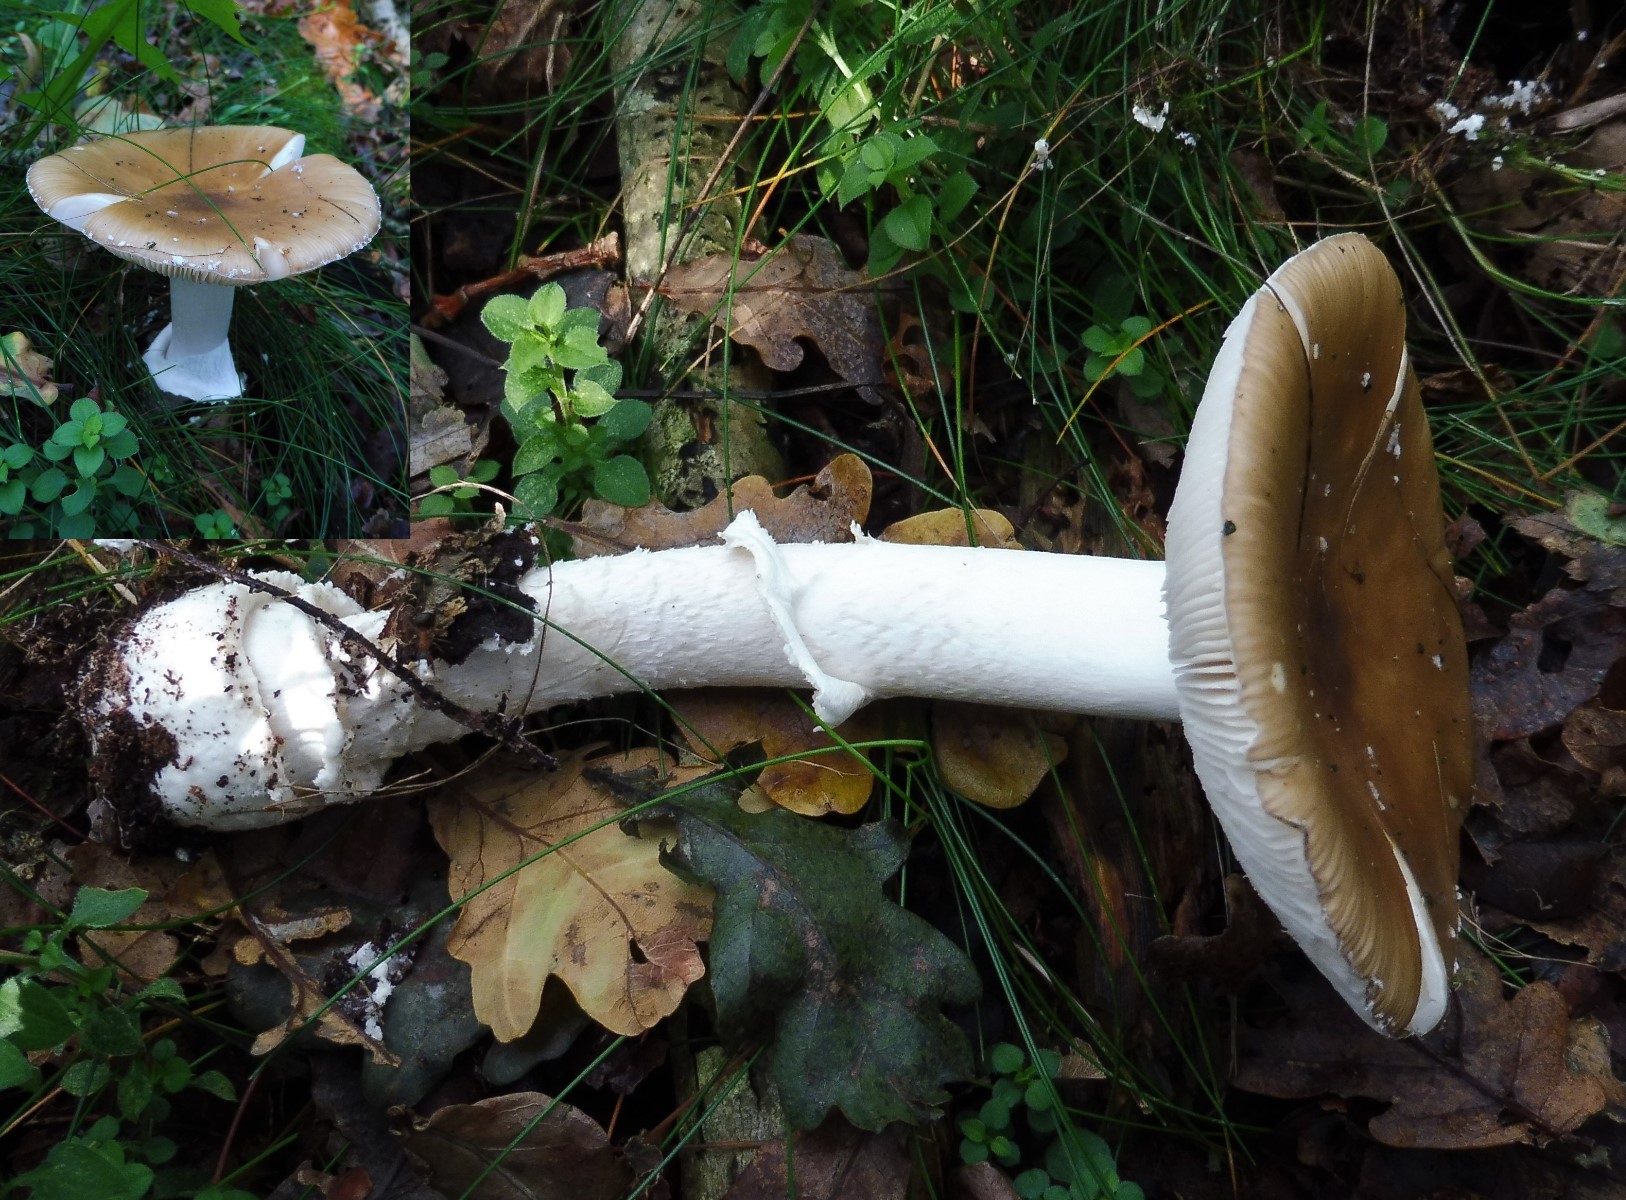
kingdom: Fungi
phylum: Basidiomycota
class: Agaricomycetes
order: Agaricales
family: Amanitaceae
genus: Amanita
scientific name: Amanita phalloides
